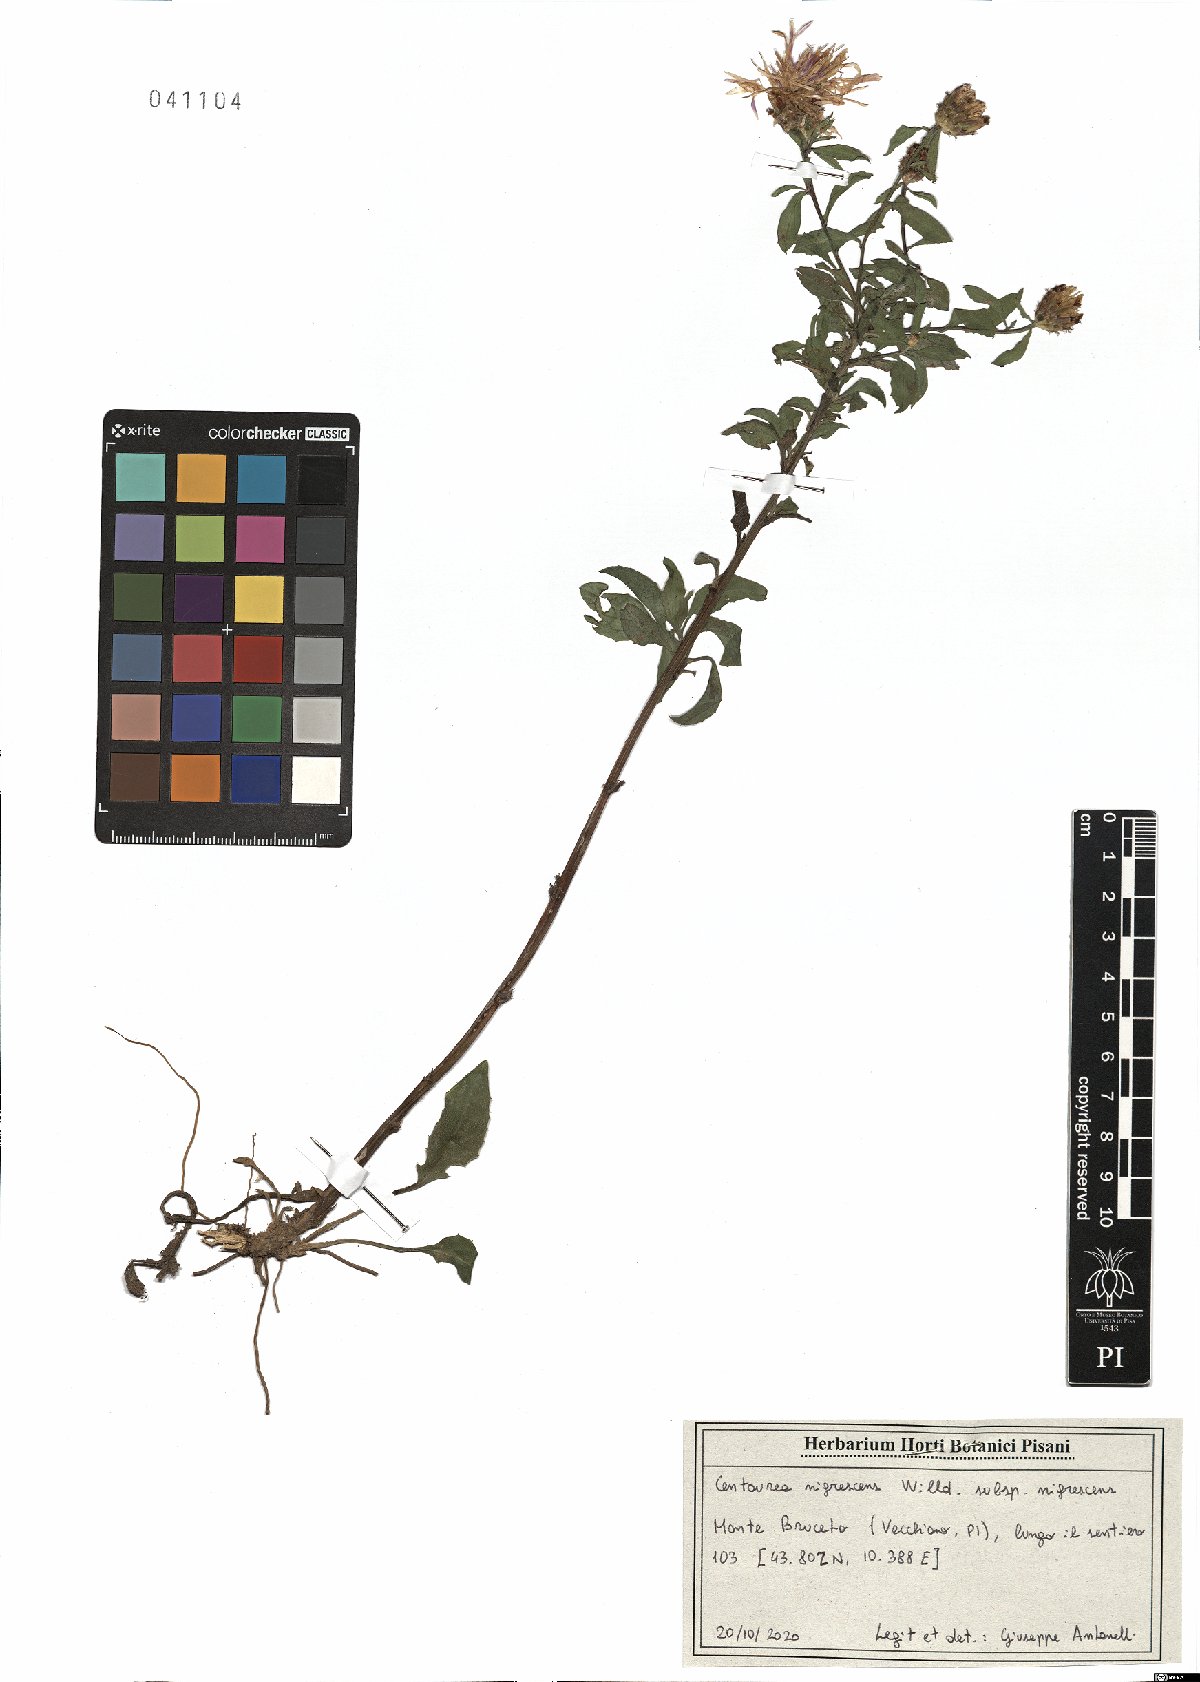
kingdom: Plantae
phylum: Tracheophyta
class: Magnoliopsida
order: Asterales
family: Asteraceae
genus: Centaurea
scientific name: Centaurea nigrescens
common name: Tyrol knapweed
